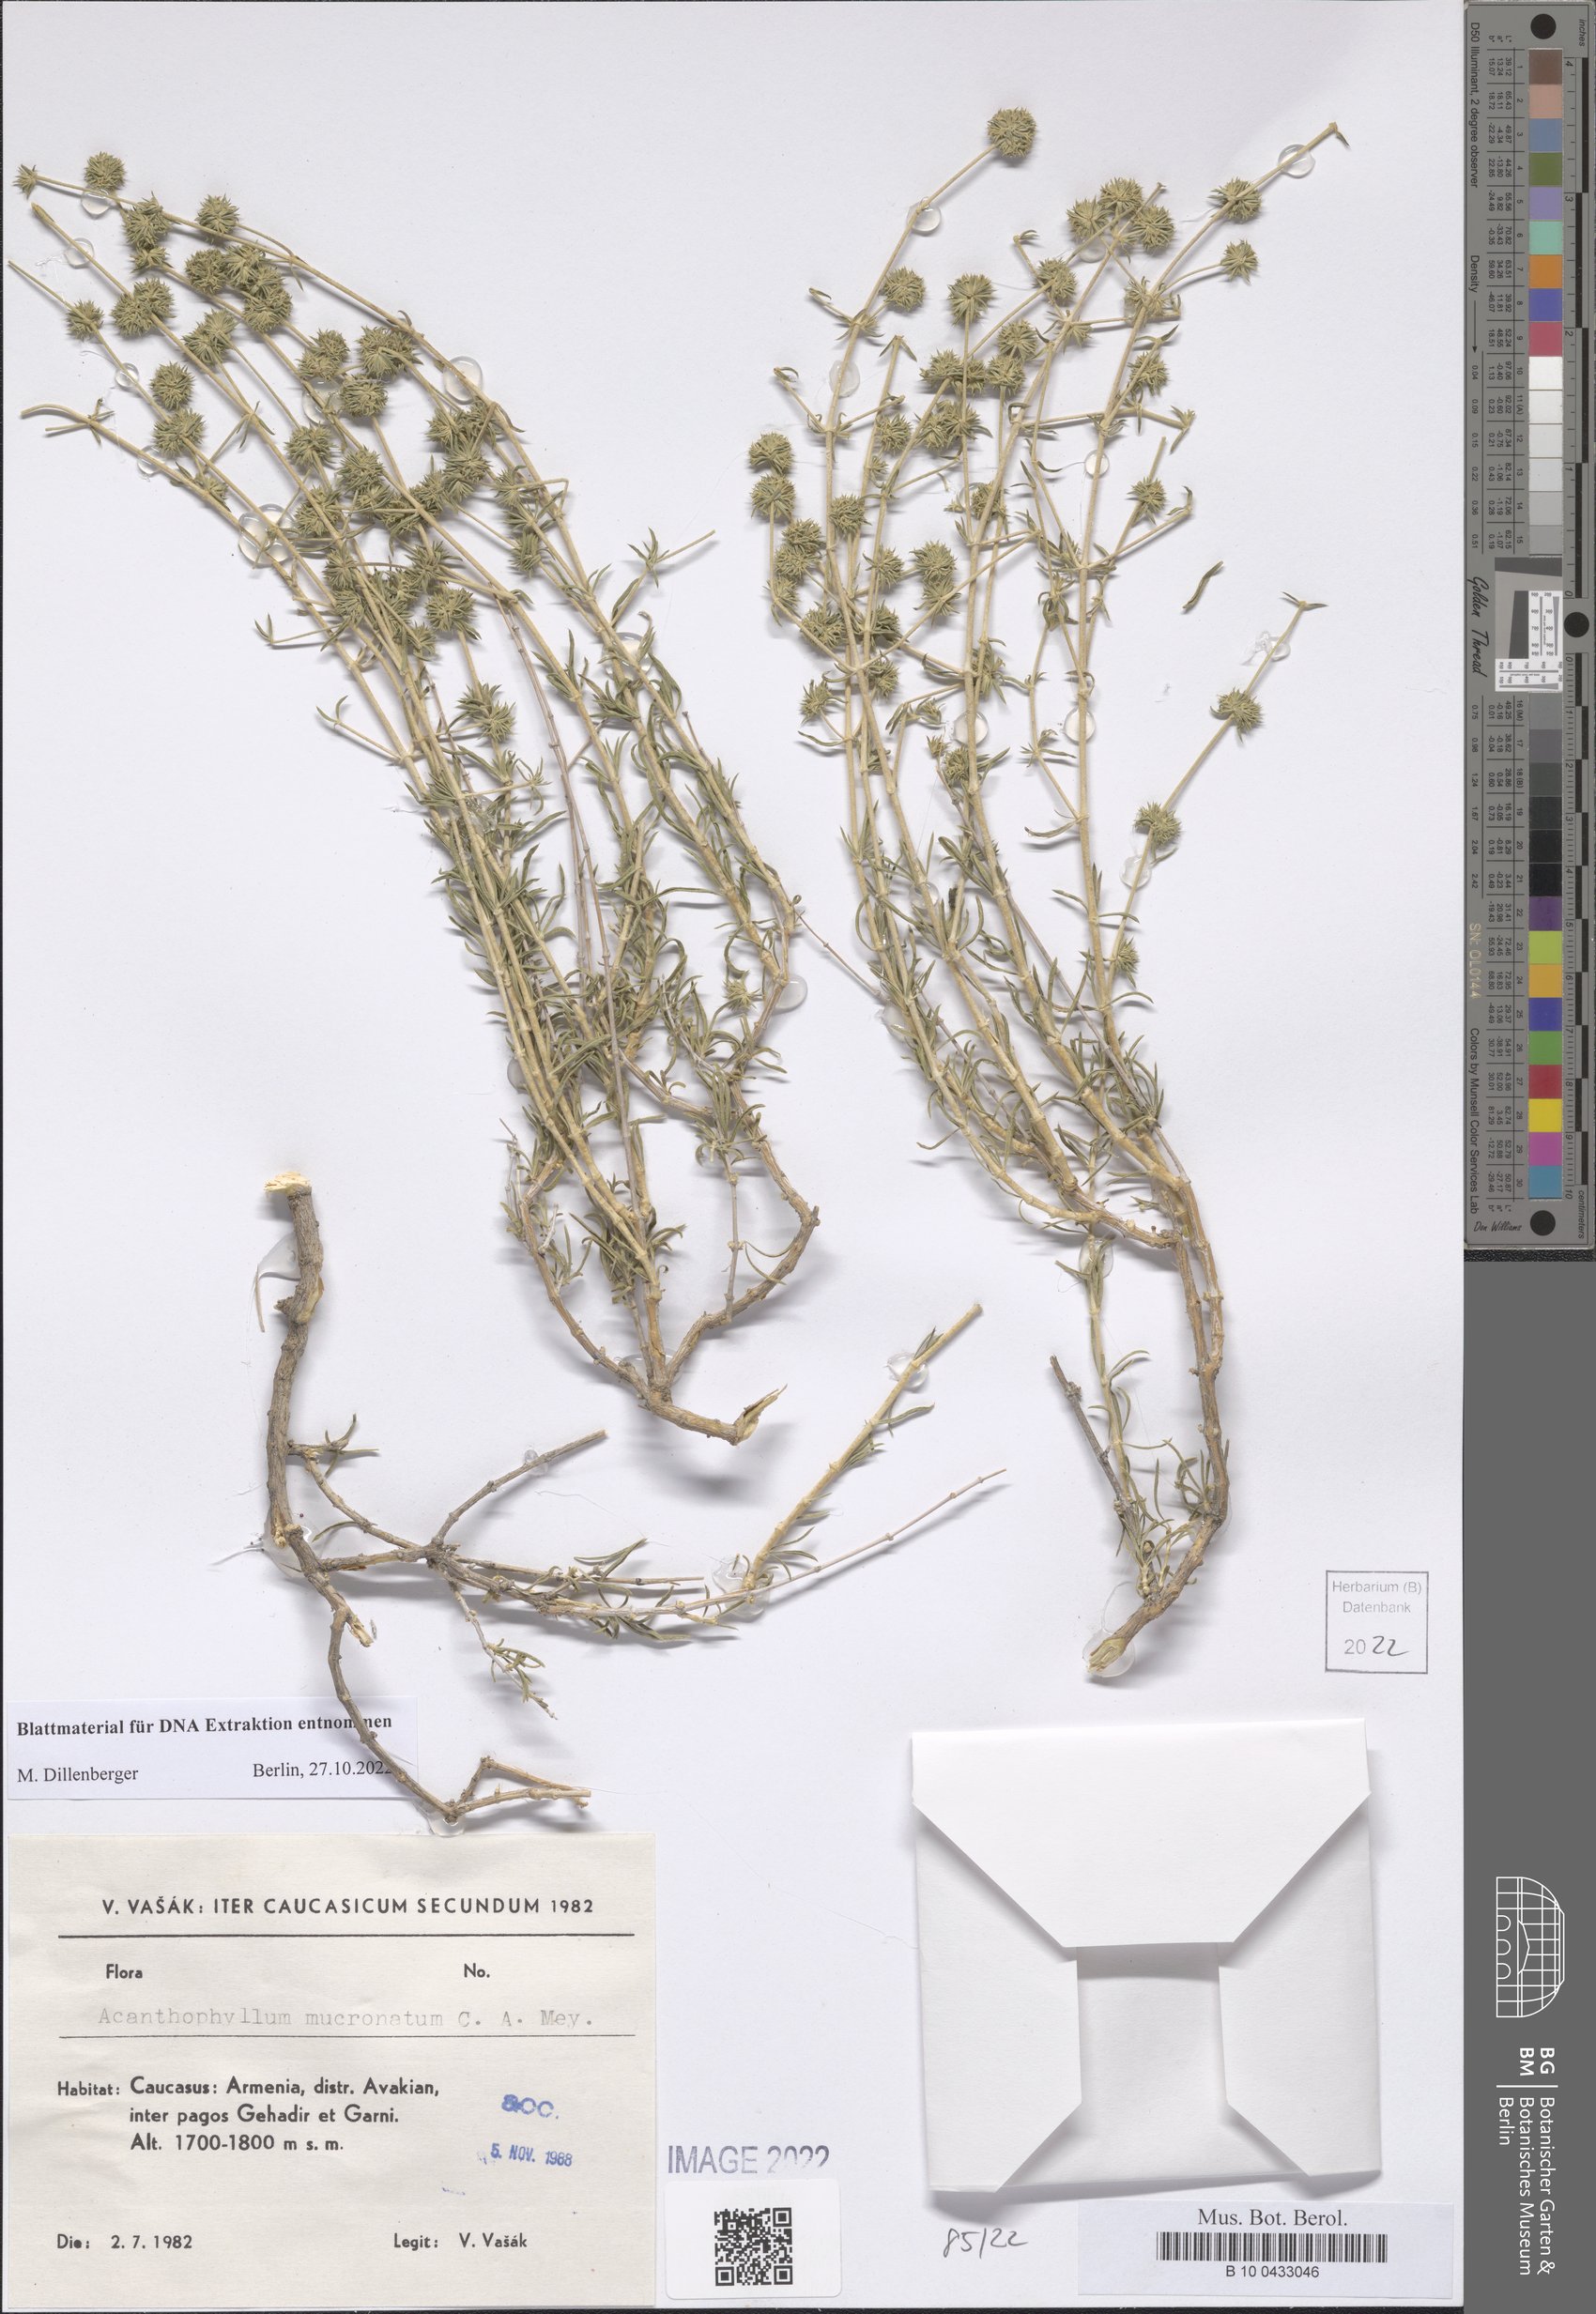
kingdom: Plantae
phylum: Tracheophyta
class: Magnoliopsida
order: Caryophyllales
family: Caryophyllaceae
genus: Acanthophyllum
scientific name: Acanthophyllum mucronatum
